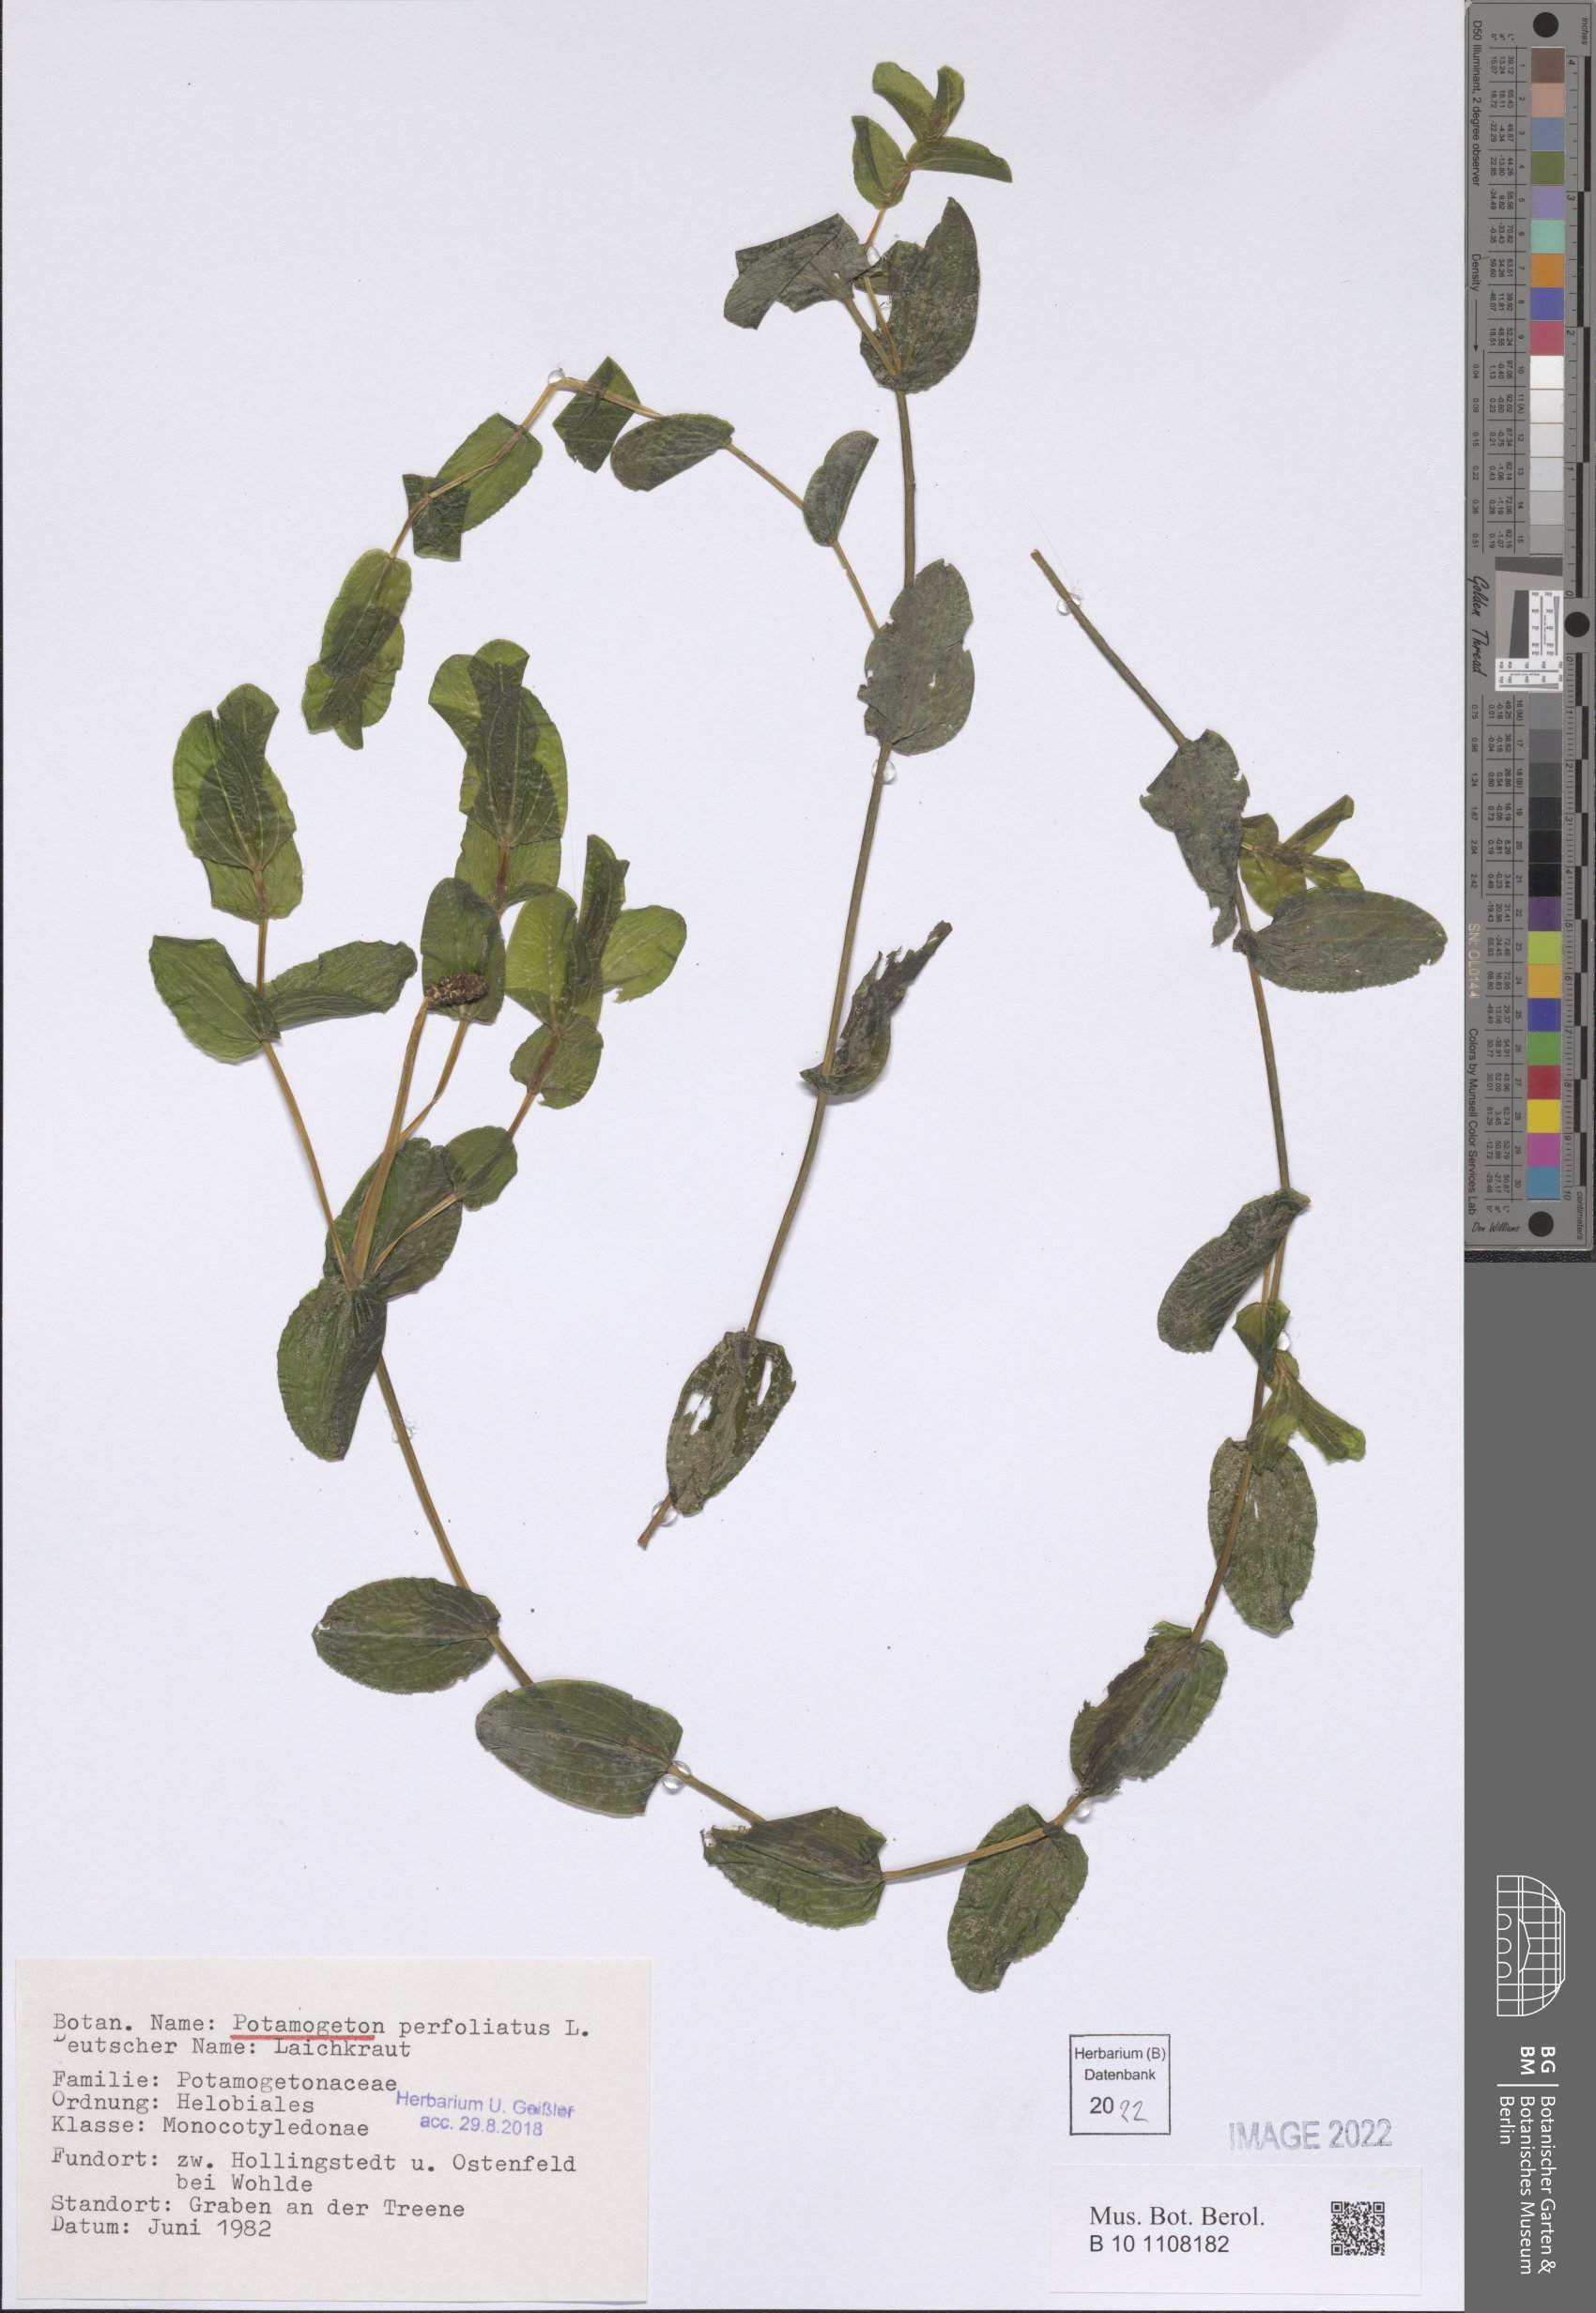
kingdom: Plantae
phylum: Tracheophyta
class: Liliopsida
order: Alismatales
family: Potamogetonaceae
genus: Potamogeton
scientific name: Potamogeton perfoliatus
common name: Perfoliate pondweed
